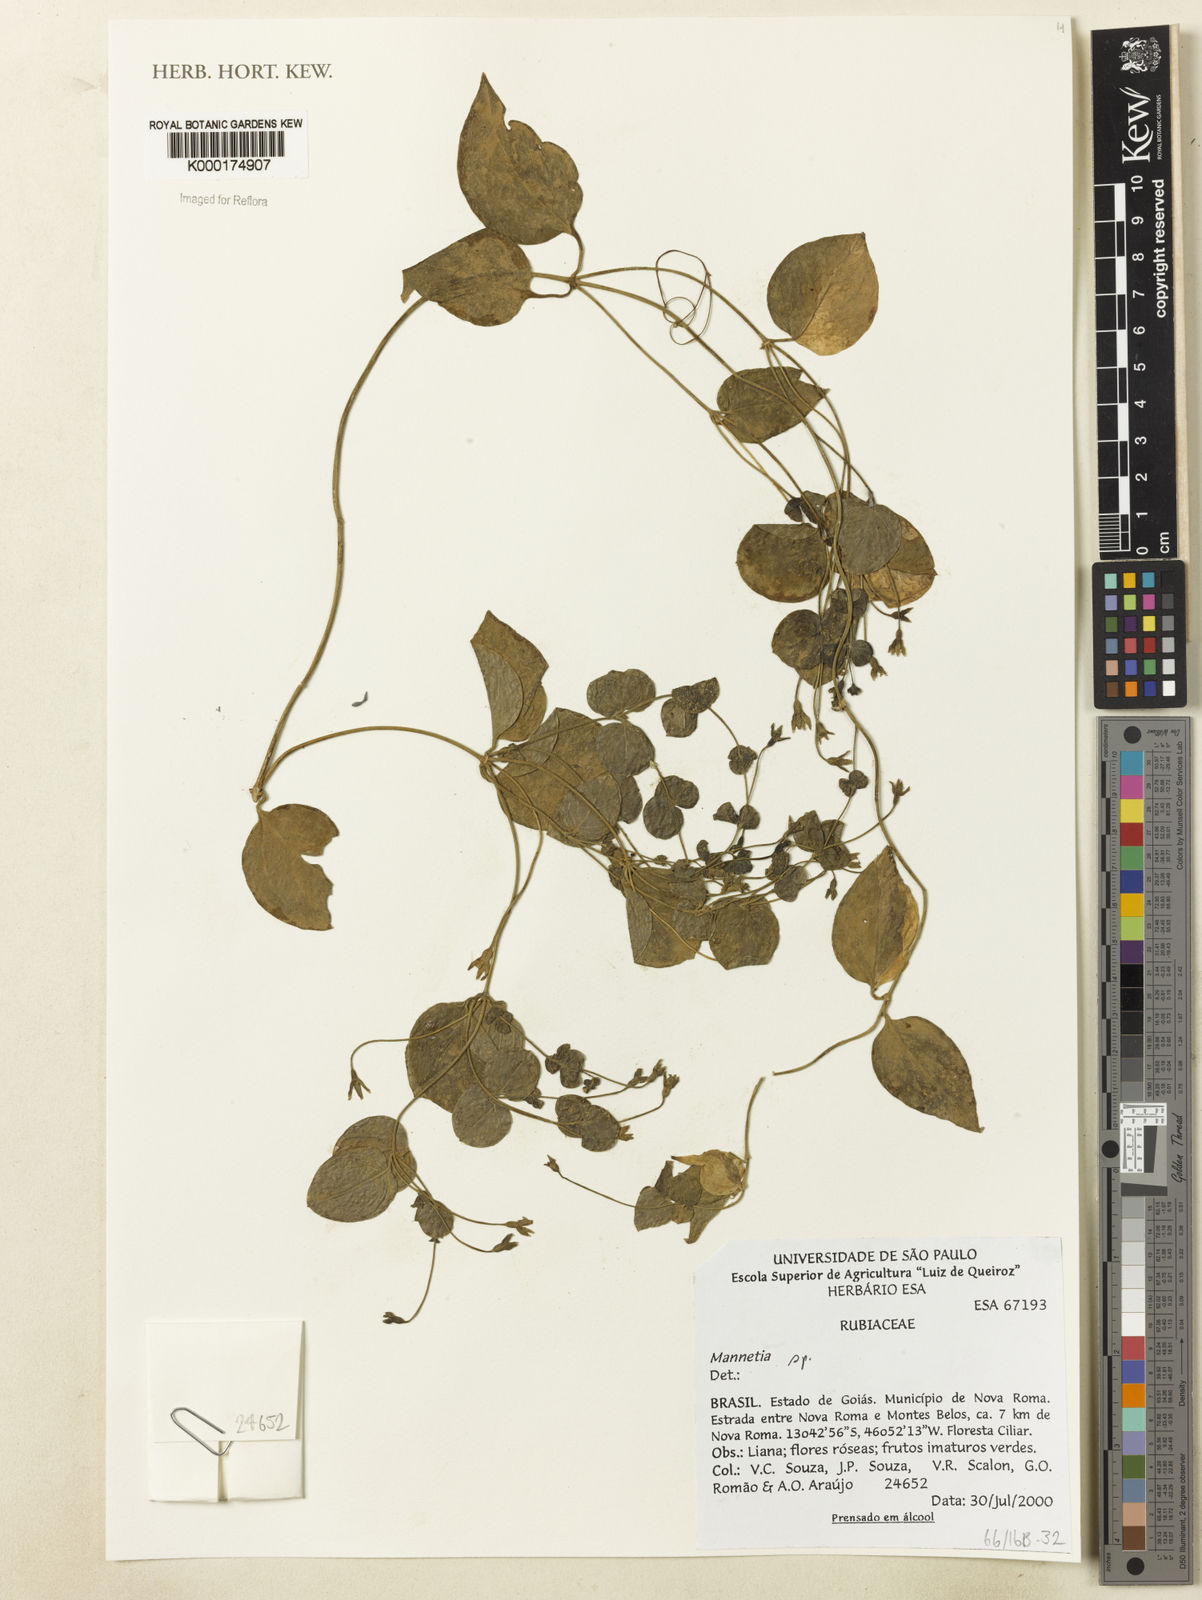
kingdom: Plantae
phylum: Tracheophyta
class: Magnoliopsida
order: Gentianales
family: Rubiaceae
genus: Manettia
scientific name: Manettia
